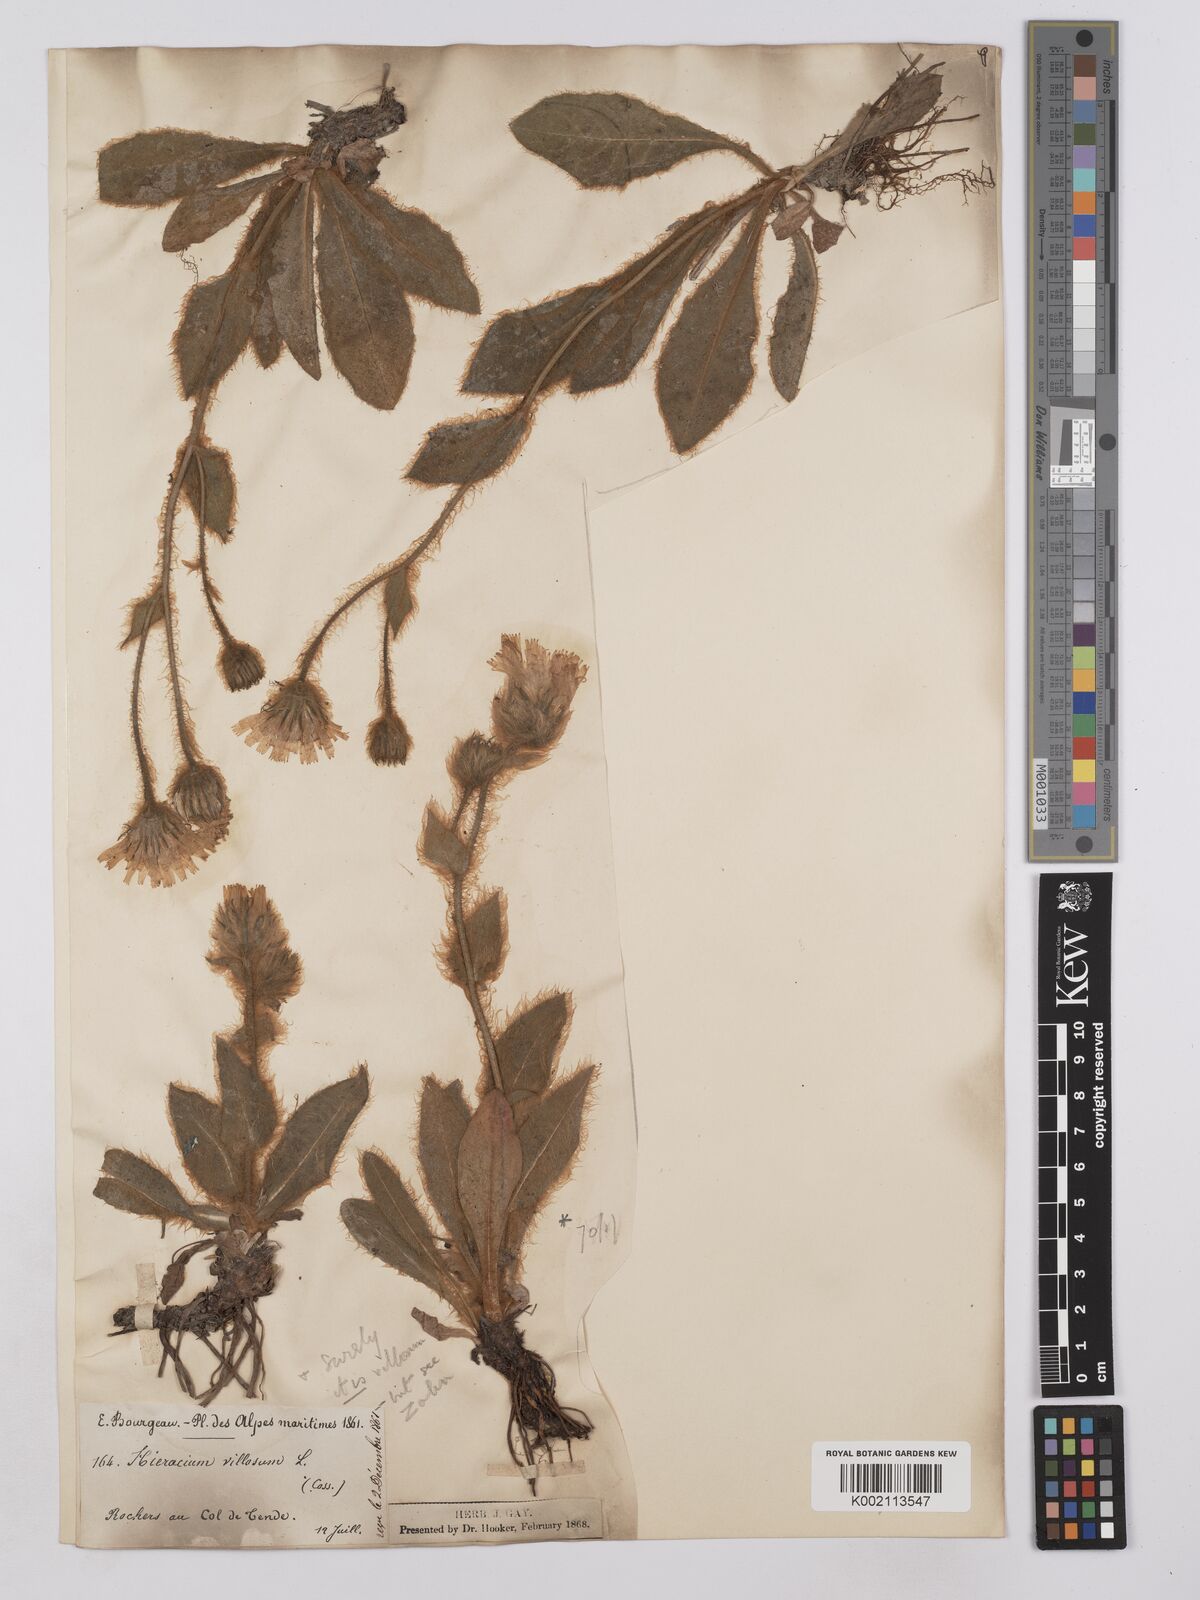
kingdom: Plantae
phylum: Tracheophyta
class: Magnoliopsida
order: Asterales
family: Asteraceae
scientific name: Asteraceae
